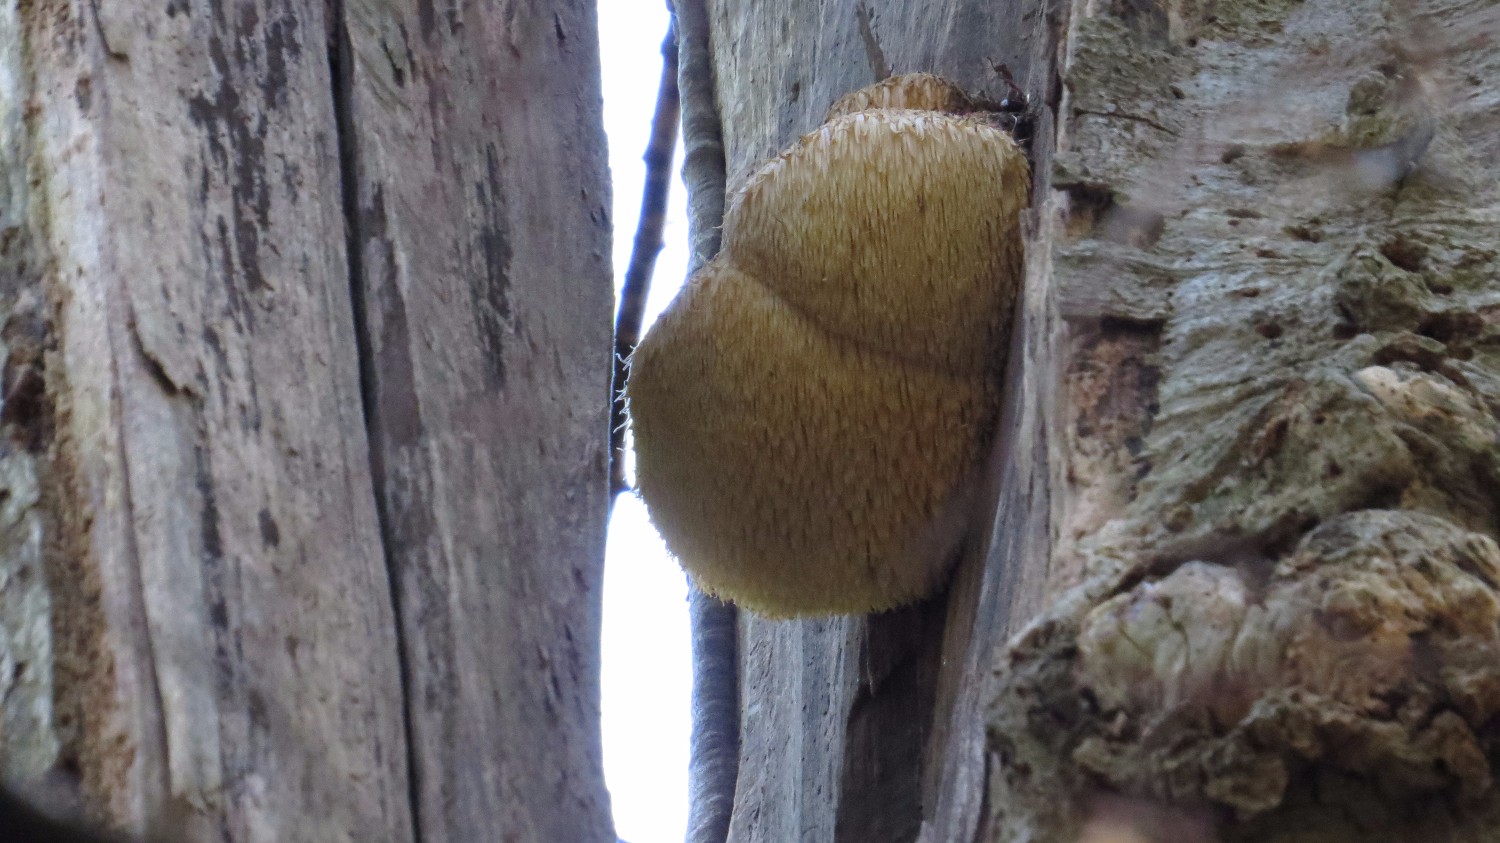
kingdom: Fungi
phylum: Basidiomycota
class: Agaricomycetes
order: Russulales
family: Hericiaceae
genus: Hericium
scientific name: Hericium erinaceus
